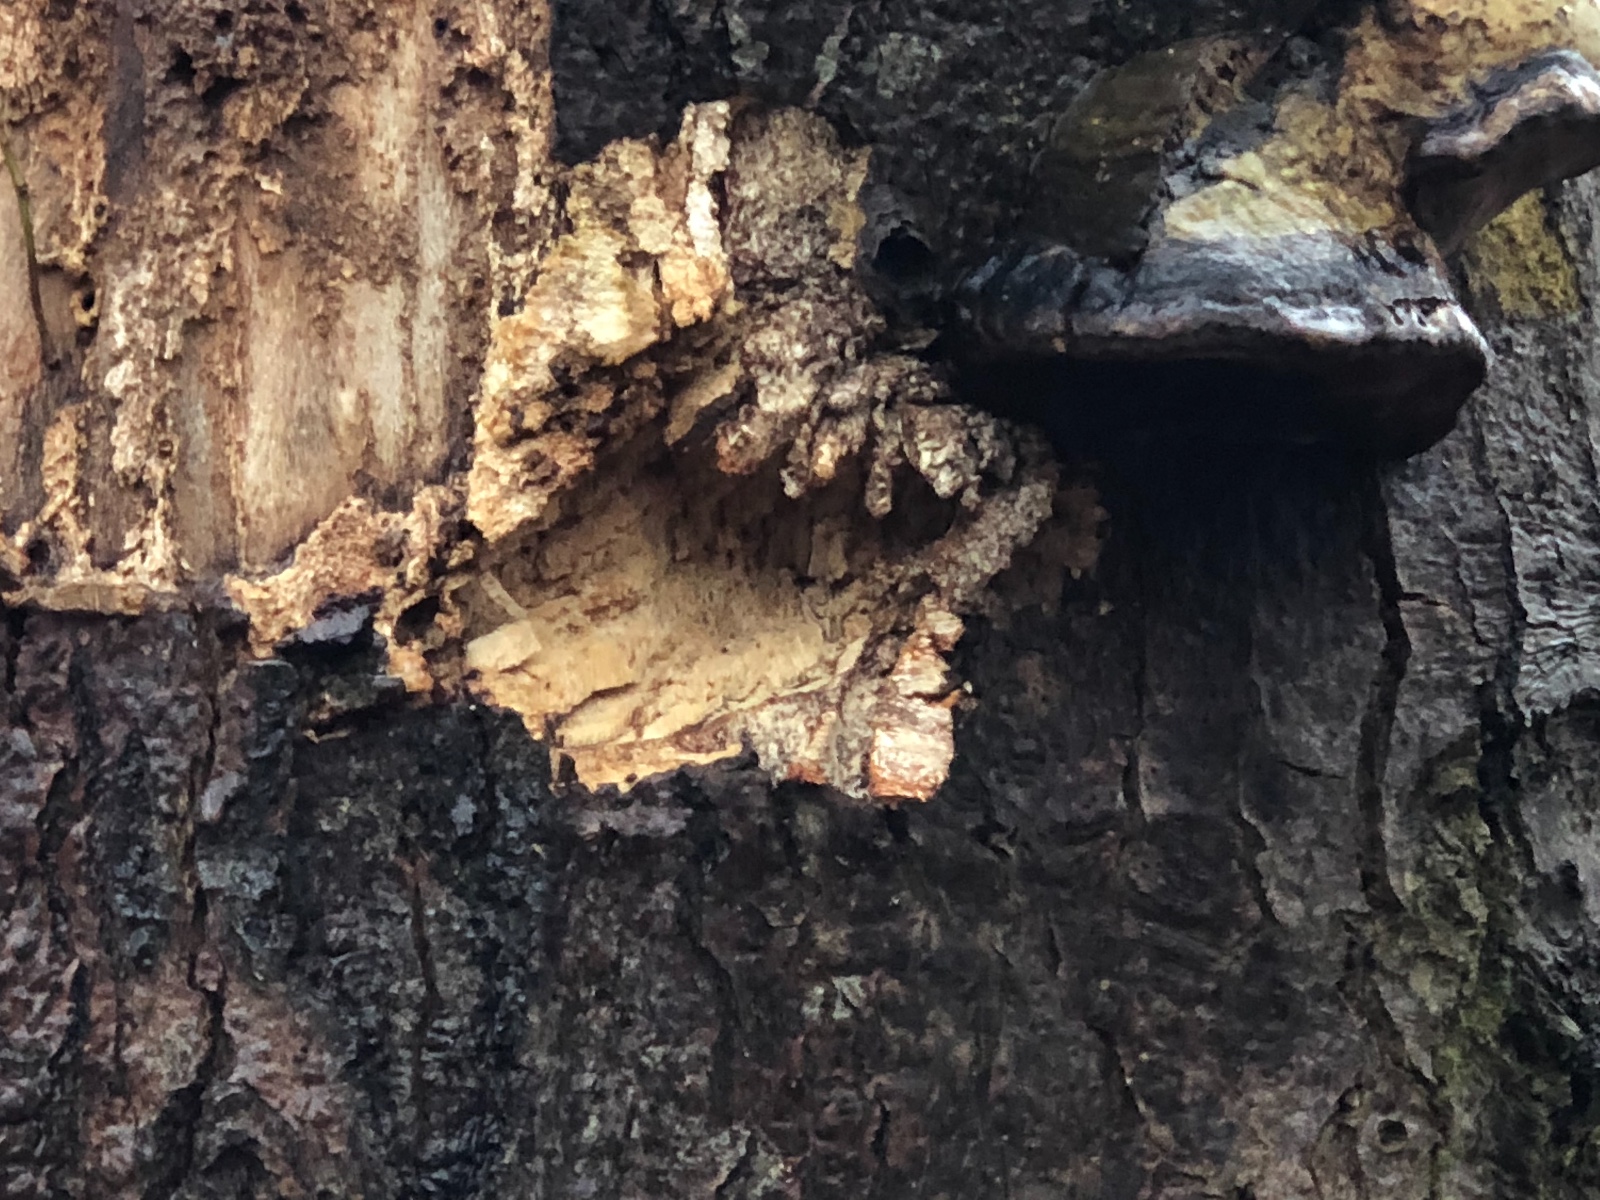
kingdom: Fungi
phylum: Basidiomycota
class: Agaricomycetes
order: Polyporales
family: Polyporaceae
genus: Fomes
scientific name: Fomes fomentarius
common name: tøndersvamp
